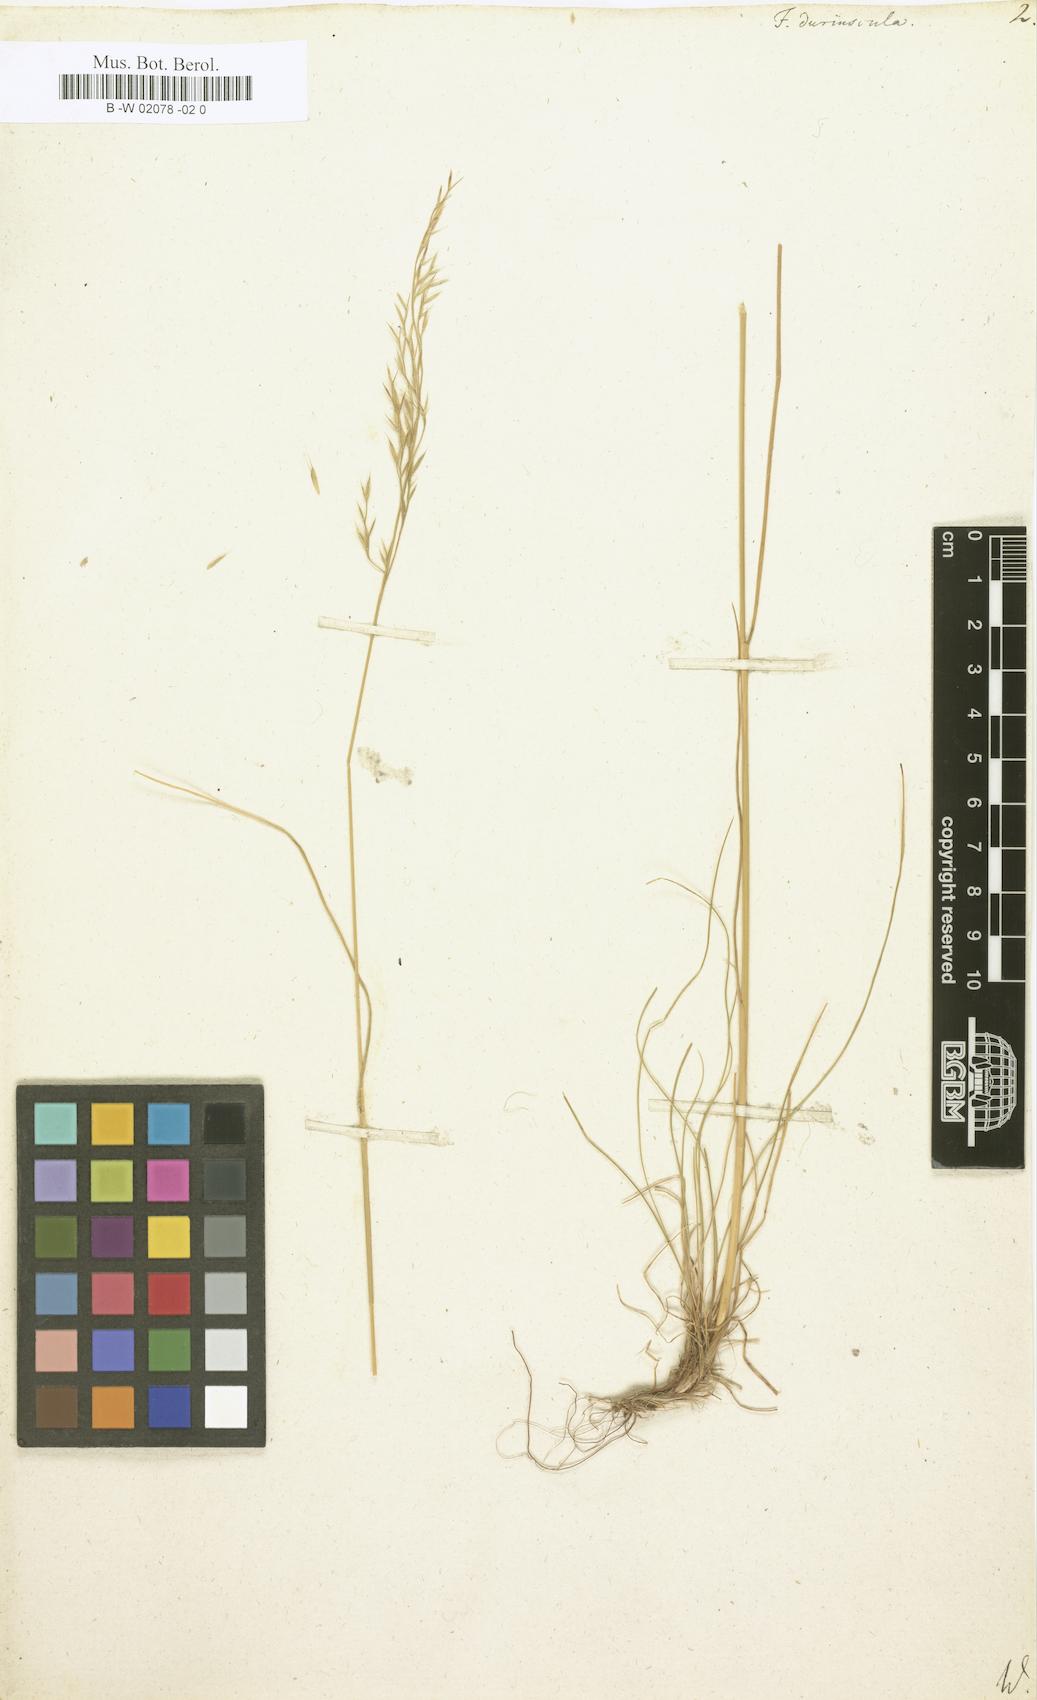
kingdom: Plantae
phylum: Tracheophyta
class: Liliopsida
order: Poales
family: Poaceae
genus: Festuca
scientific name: Festuca
